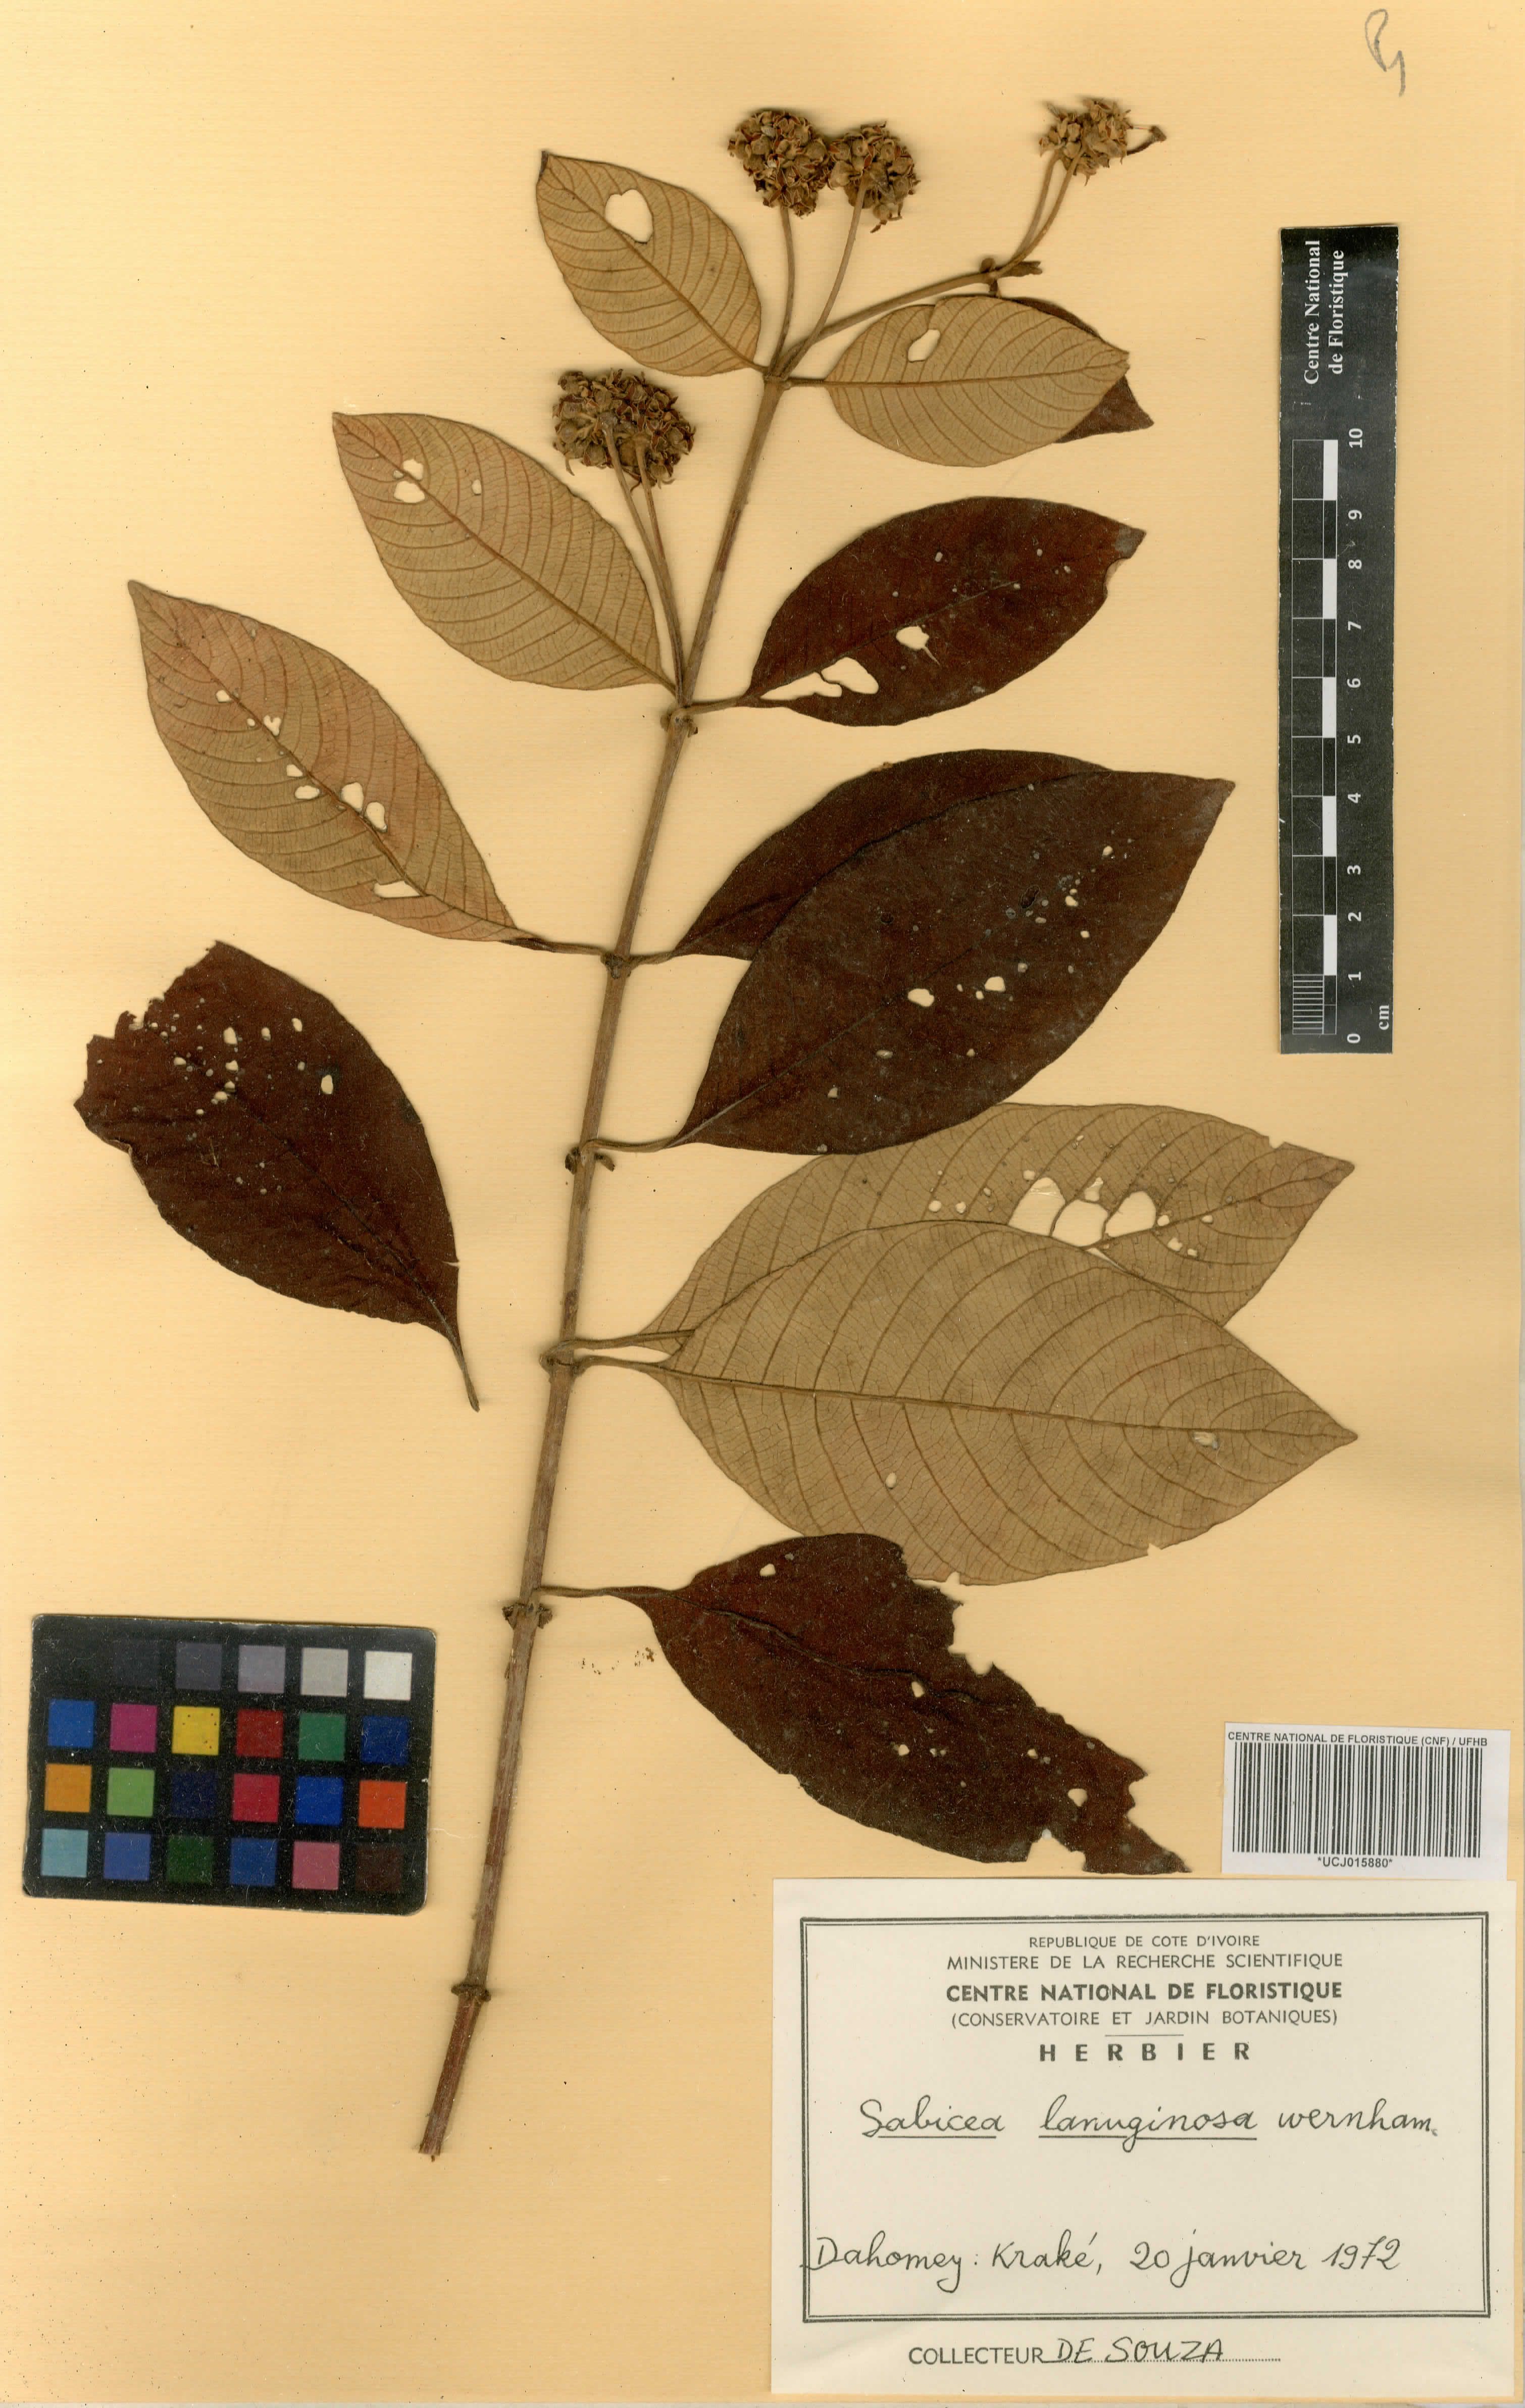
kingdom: Plantae
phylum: Tracheophyta
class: Magnoliopsida
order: Gentianales
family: Rubiaceae
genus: Sabicea
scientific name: Sabicea lanuginosa
